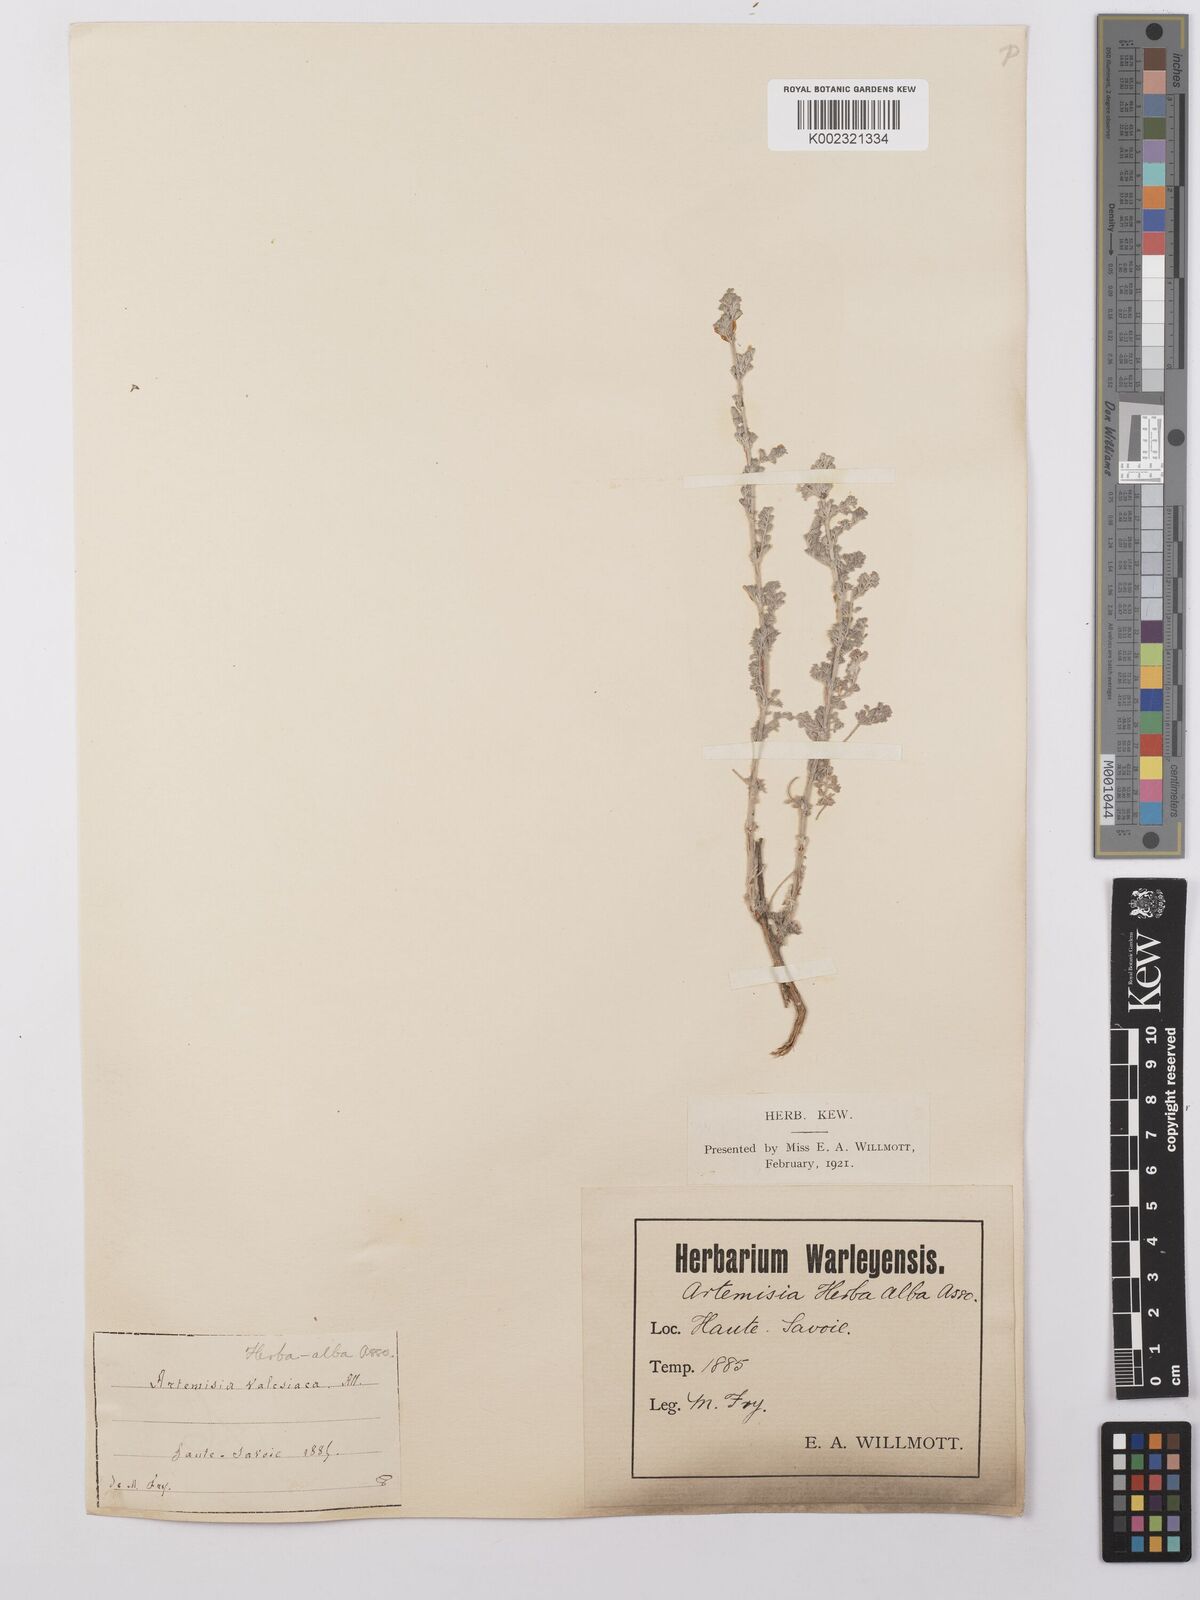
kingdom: Plantae
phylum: Tracheophyta
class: Magnoliopsida
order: Asterales
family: Asteraceae
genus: Artemisia
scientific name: Artemisia herba-alba
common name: White wormwood
